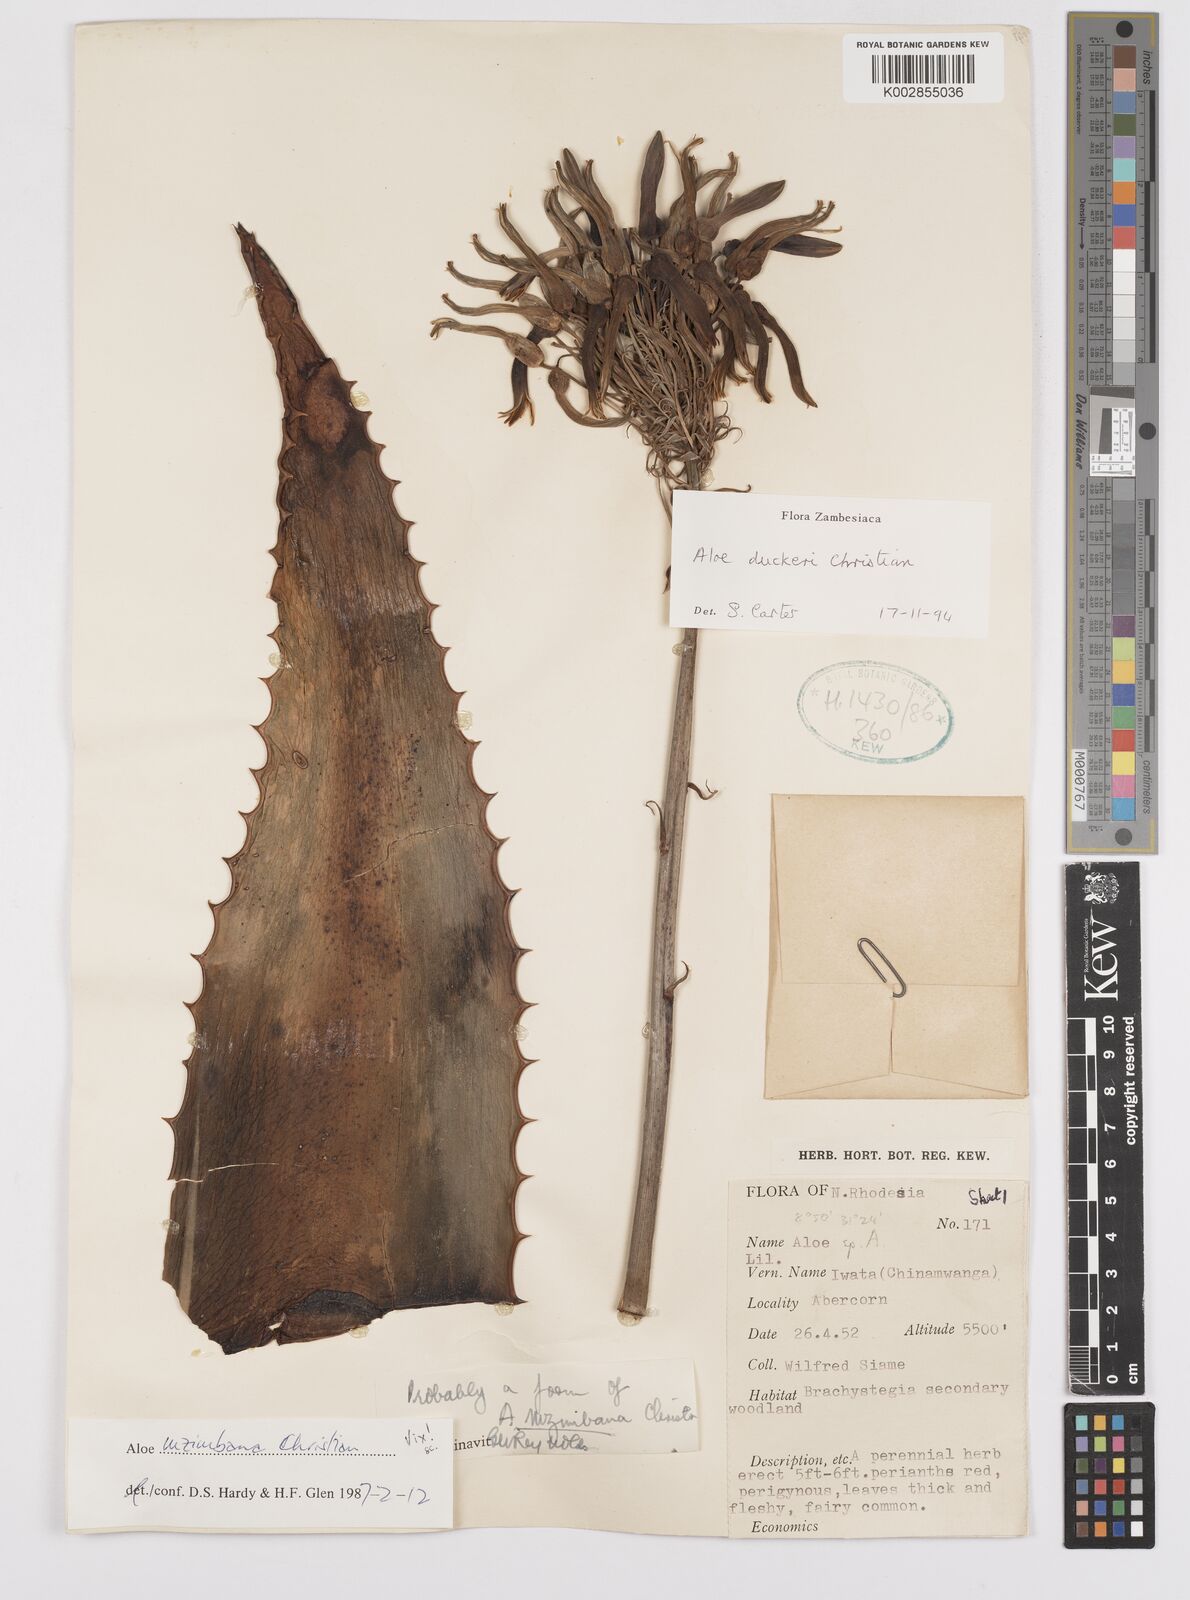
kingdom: Plantae
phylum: Tracheophyta
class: Liliopsida
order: Asparagales
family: Asphodelaceae
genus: Aloe
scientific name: Aloe duckeri
